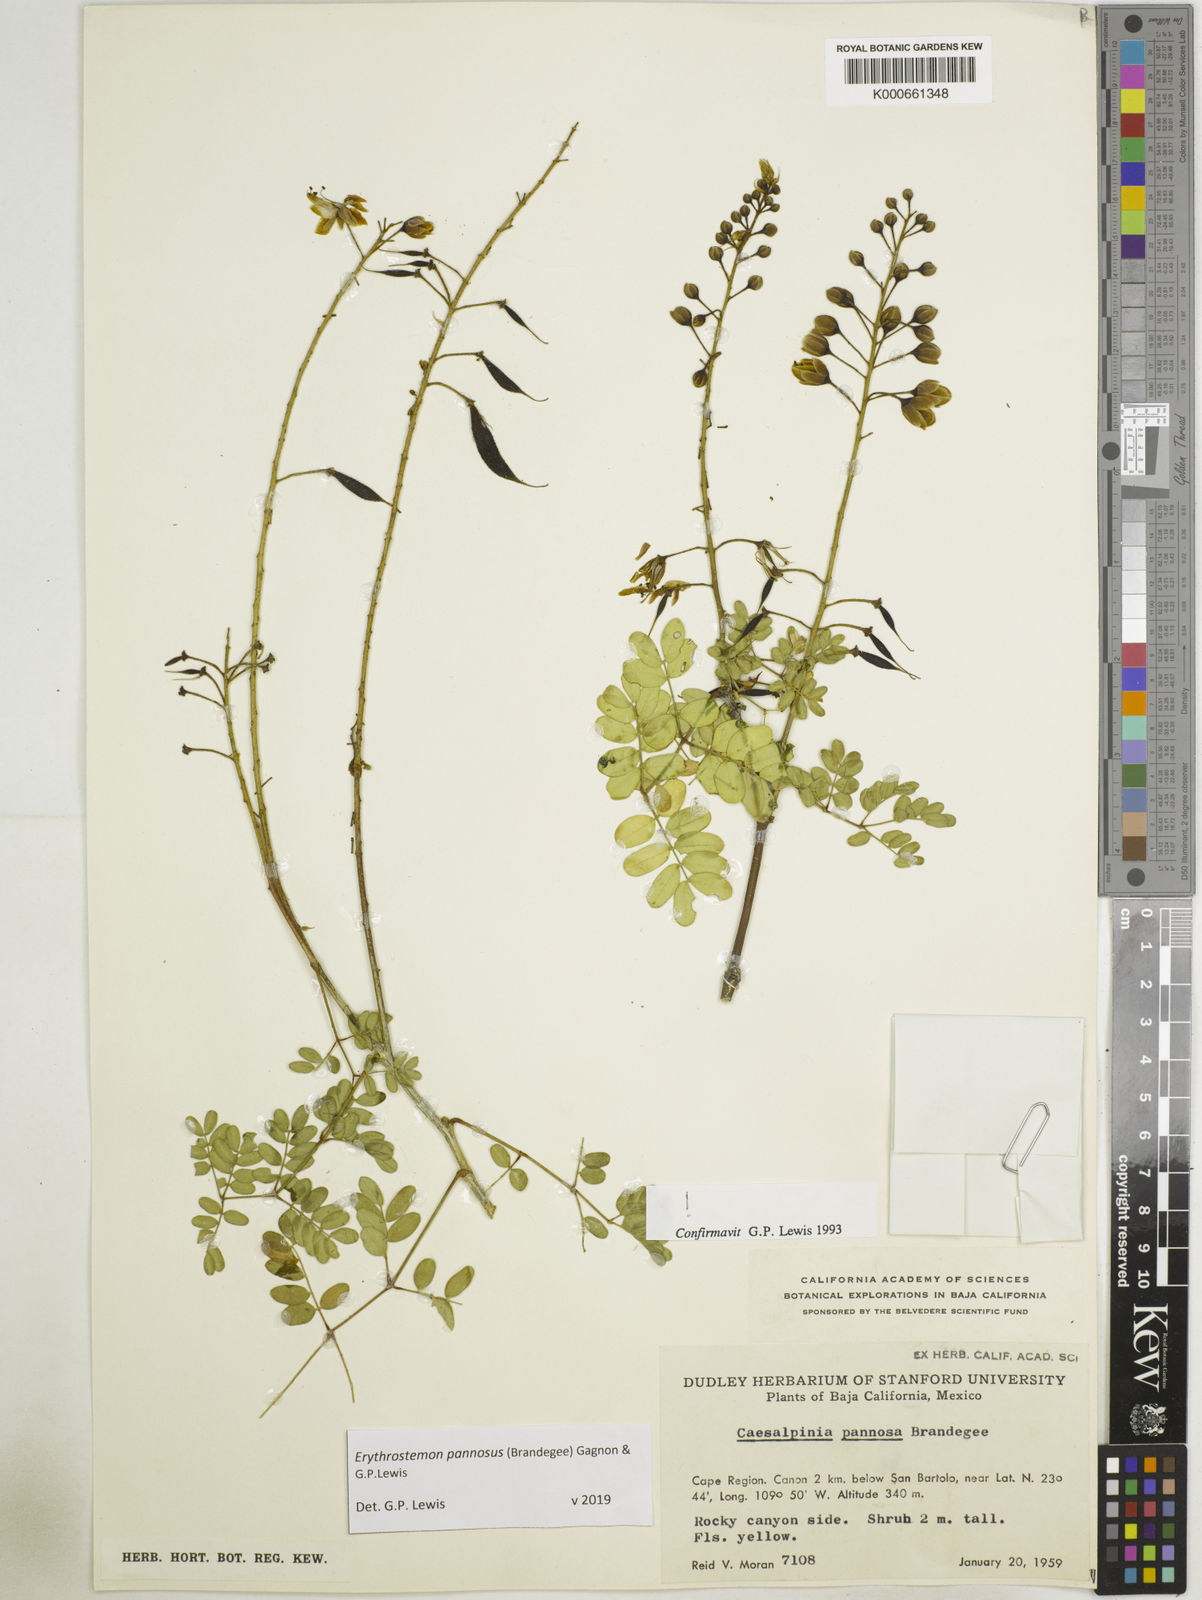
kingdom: Plantae
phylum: Tracheophyta
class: Magnoliopsida
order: Fabales
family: Fabaceae
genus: Erythrostemon
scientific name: Erythrostemon pannosus
